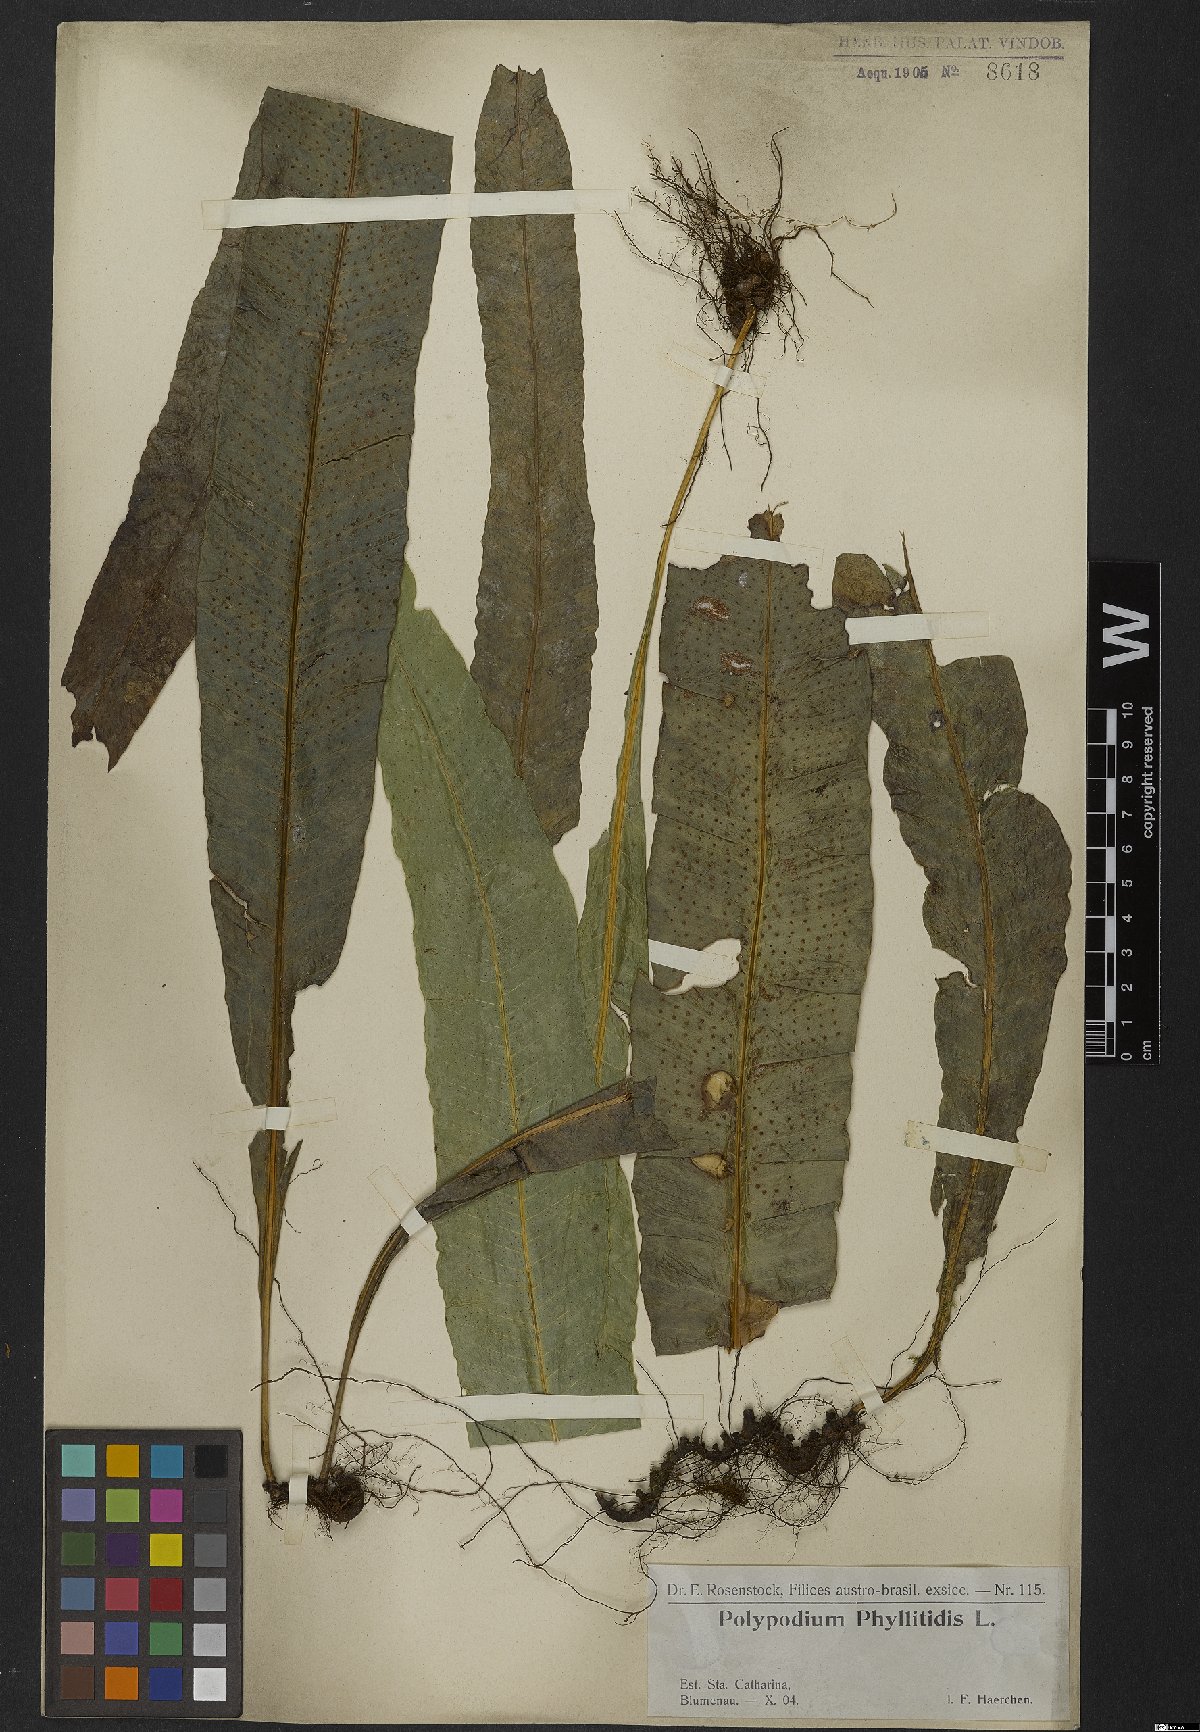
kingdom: Plantae
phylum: Tracheophyta
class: Polypodiopsida
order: Polypodiales
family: Polypodiaceae
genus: Campyloneurum
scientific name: Campyloneurum phyllitidis
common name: Cow-tongue fern
